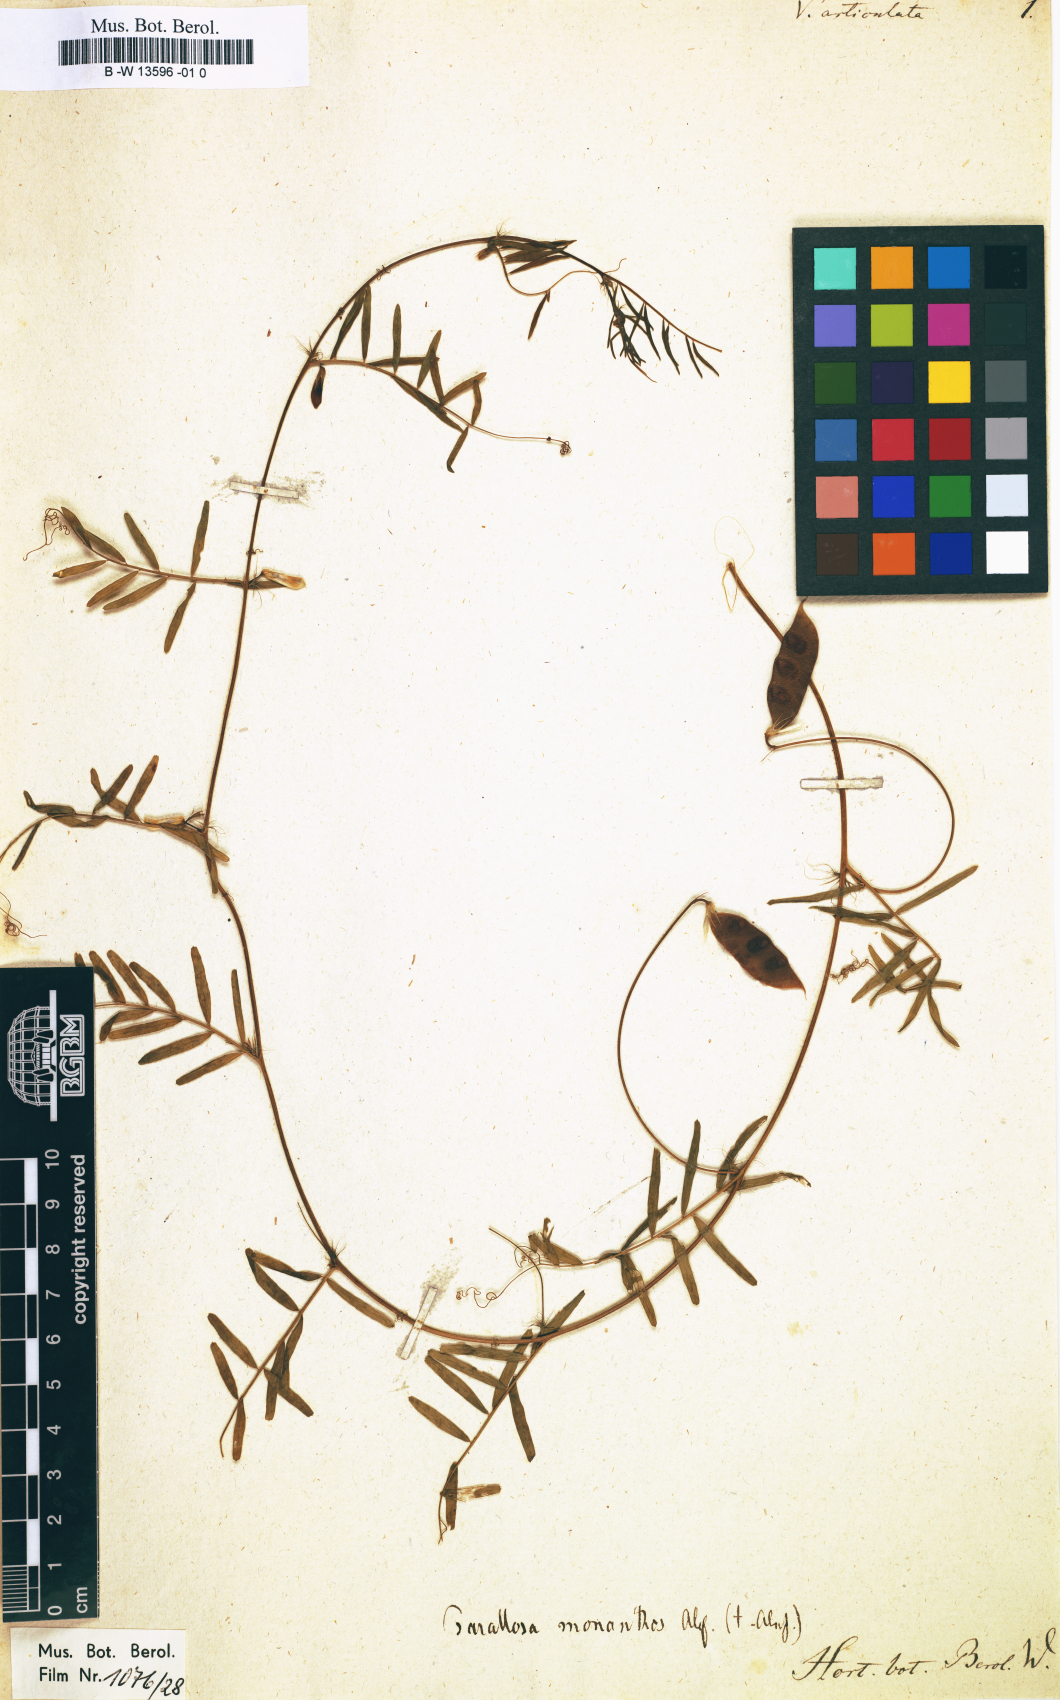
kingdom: Plantae
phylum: Tracheophyta
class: Magnoliopsida
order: Fabales
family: Fabaceae
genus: Vicia
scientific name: Vicia articulata
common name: Monantha vetch
